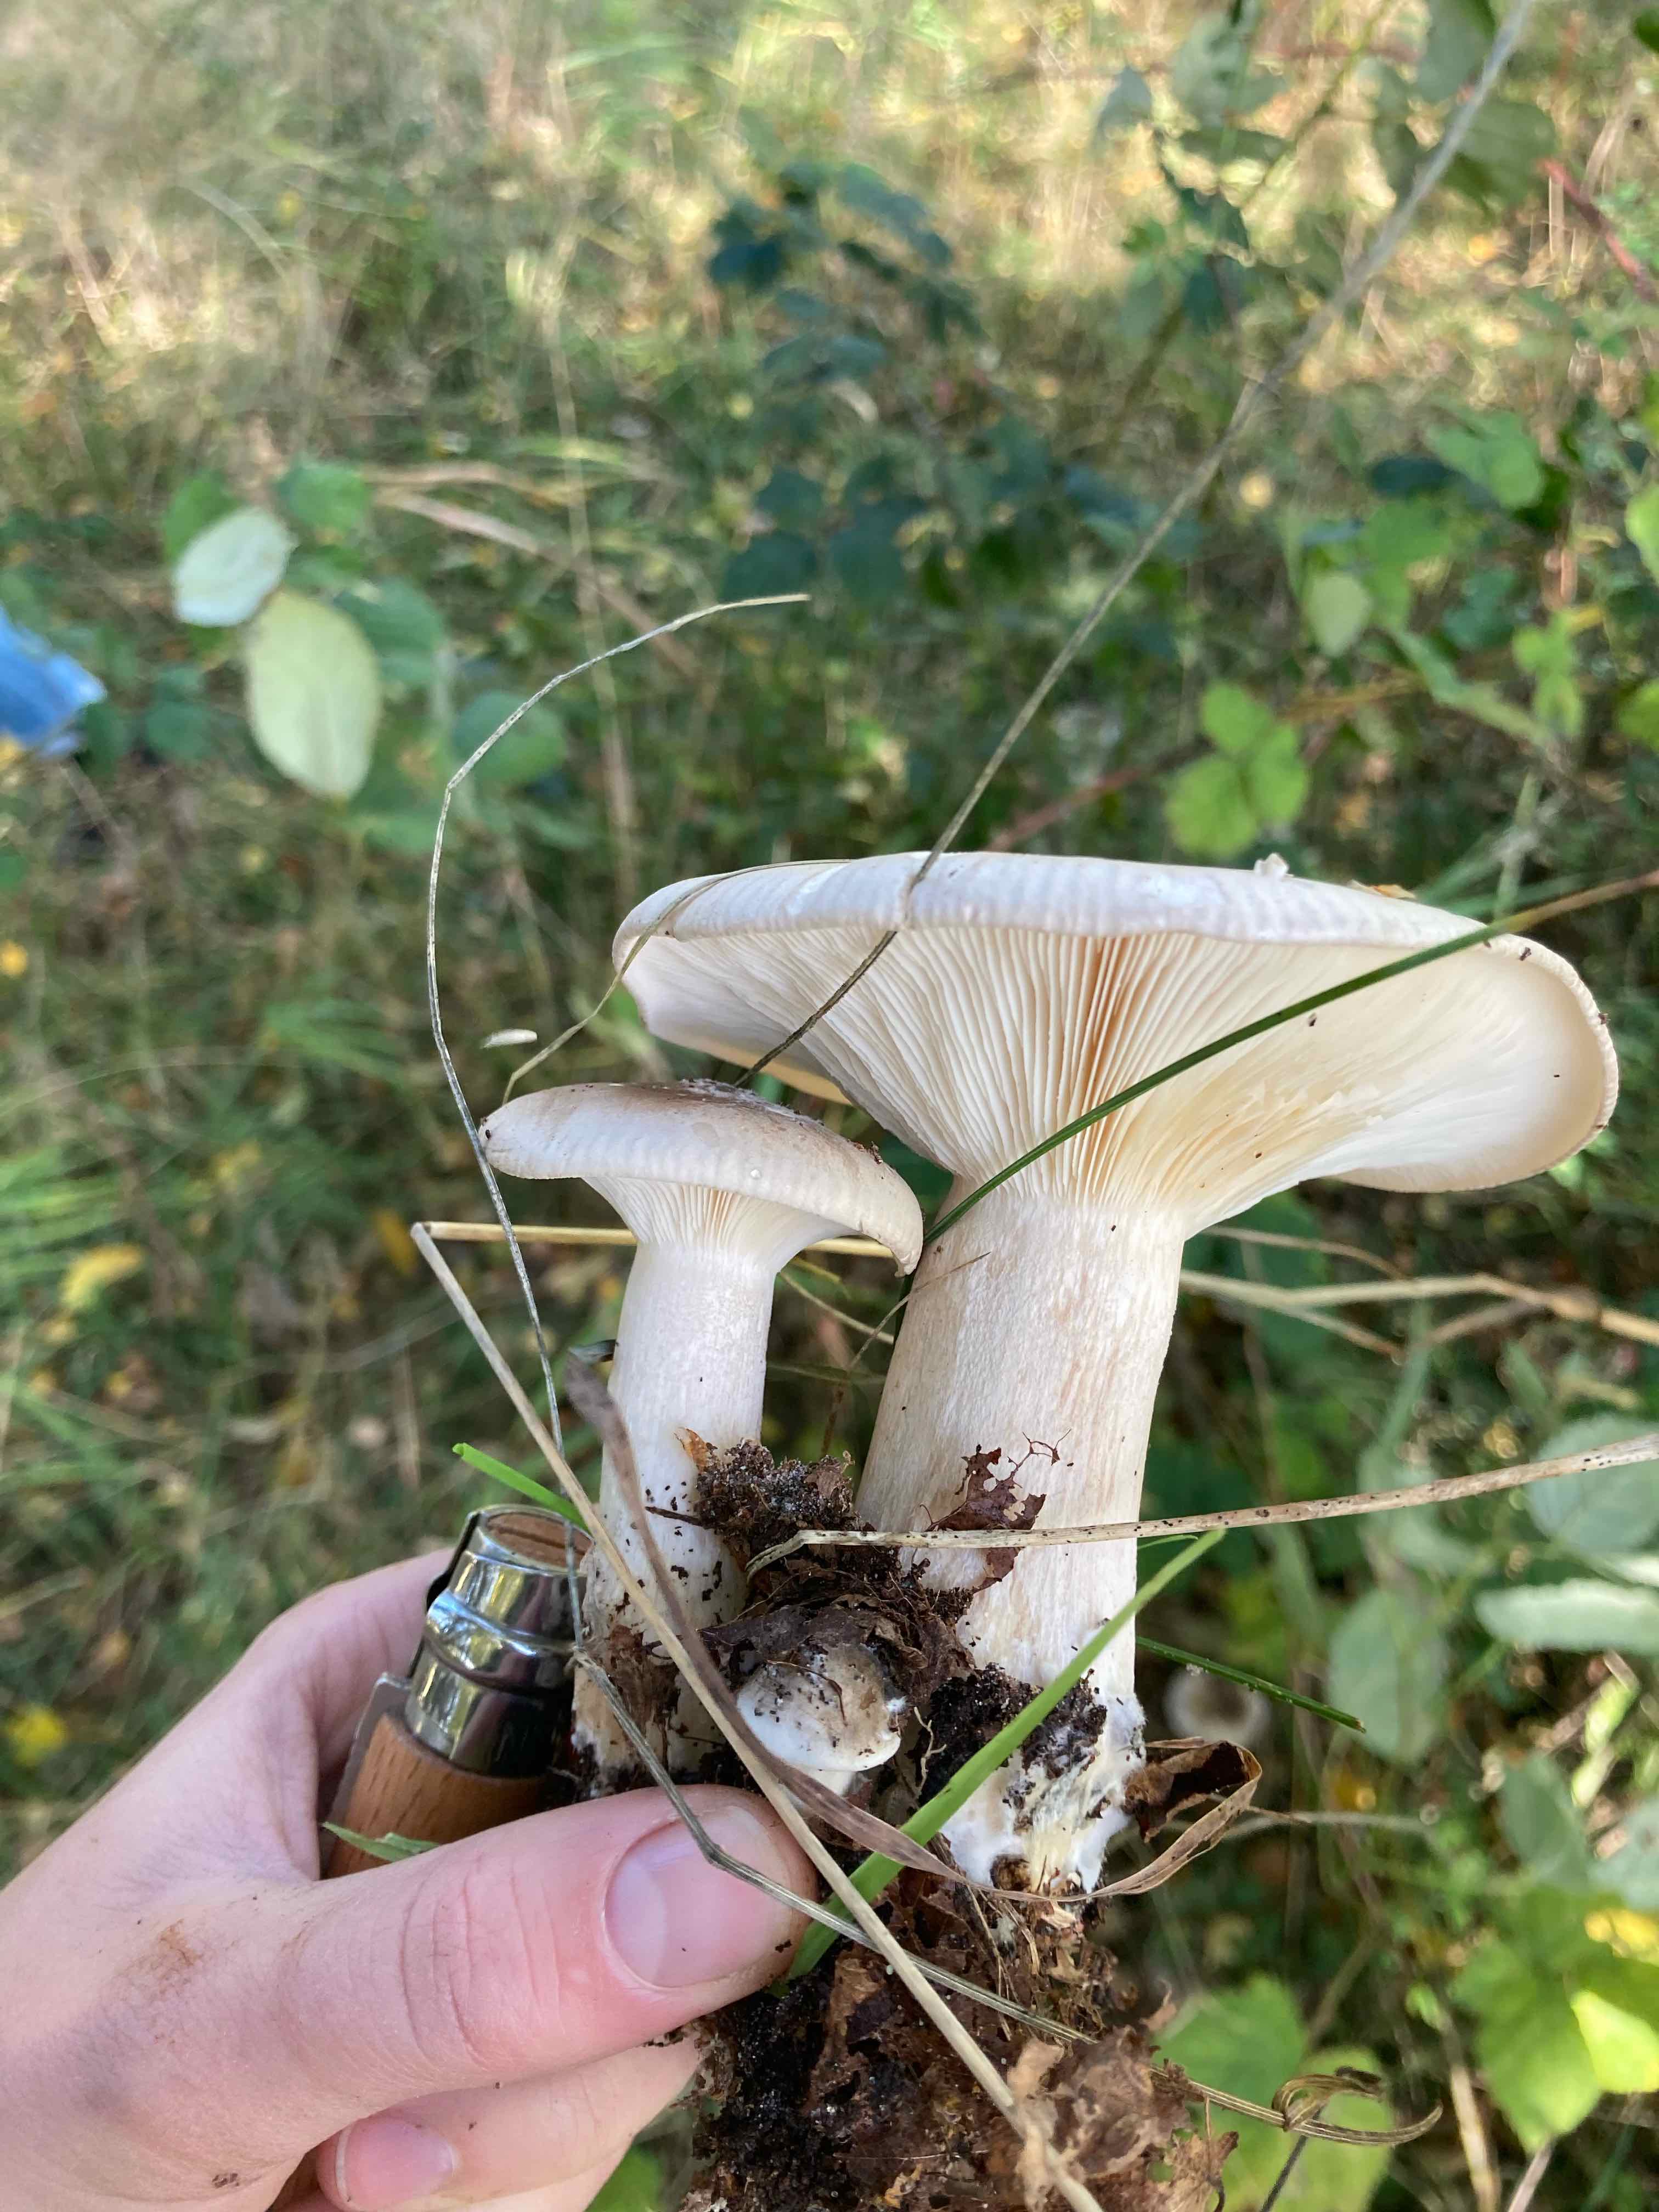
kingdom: Fungi
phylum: Basidiomycota
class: Agaricomycetes
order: Agaricales
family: Tricholomataceae
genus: Clitocybe
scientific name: Clitocybe nebularis
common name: tåge-tragthat
